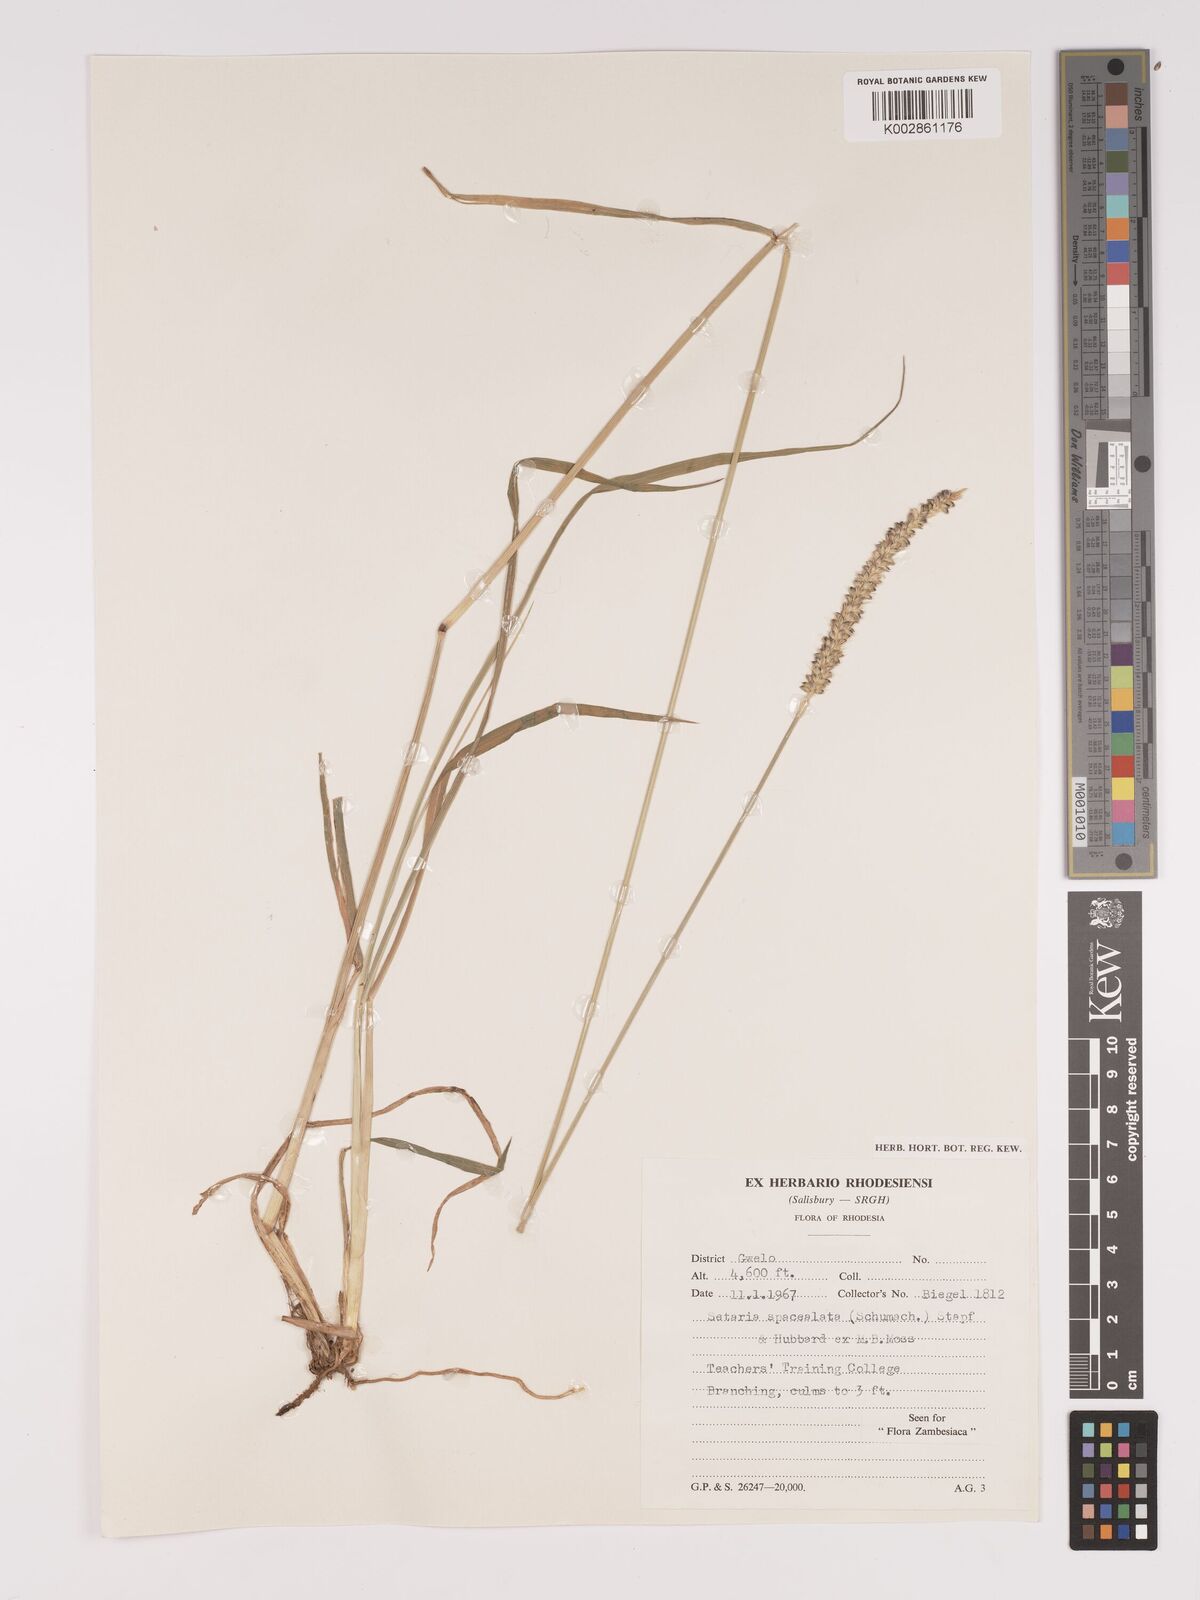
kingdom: Plantae
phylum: Tracheophyta
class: Liliopsida
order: Poales
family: Poaceae
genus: Setaria
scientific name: Setaria sphacelata
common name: African bristlegrass
